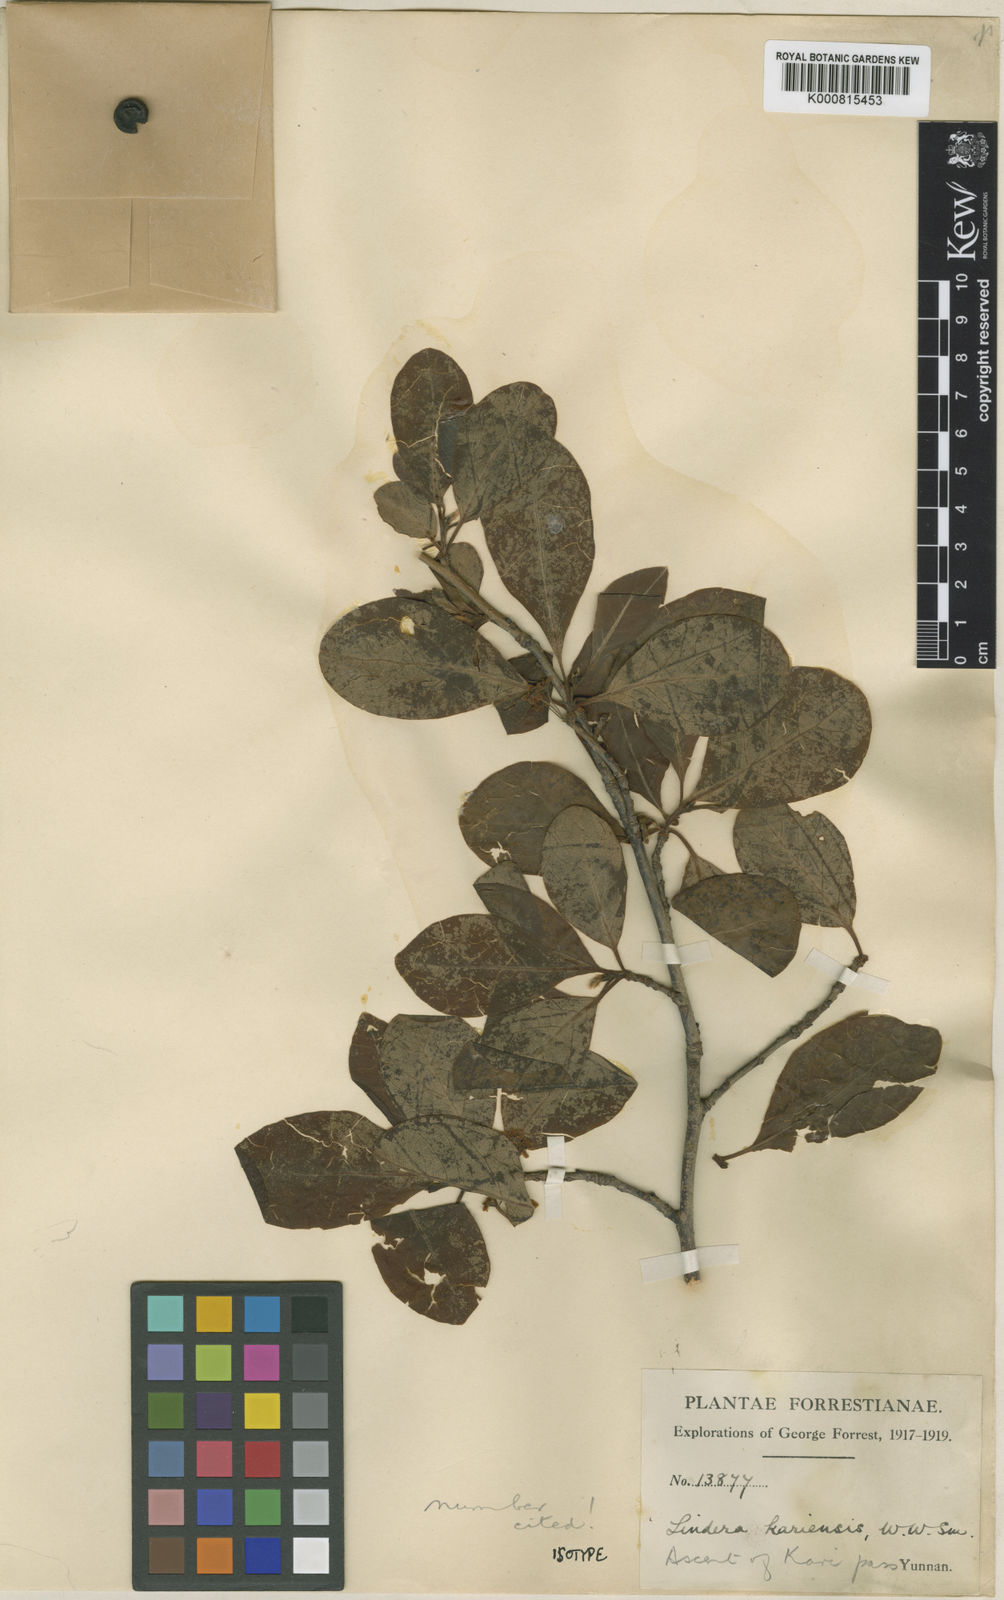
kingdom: Plantae
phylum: Tracheophyta
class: Magnoliopsida
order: Laurales
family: Lauraceae
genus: Lindera
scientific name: Lindera kariensis
